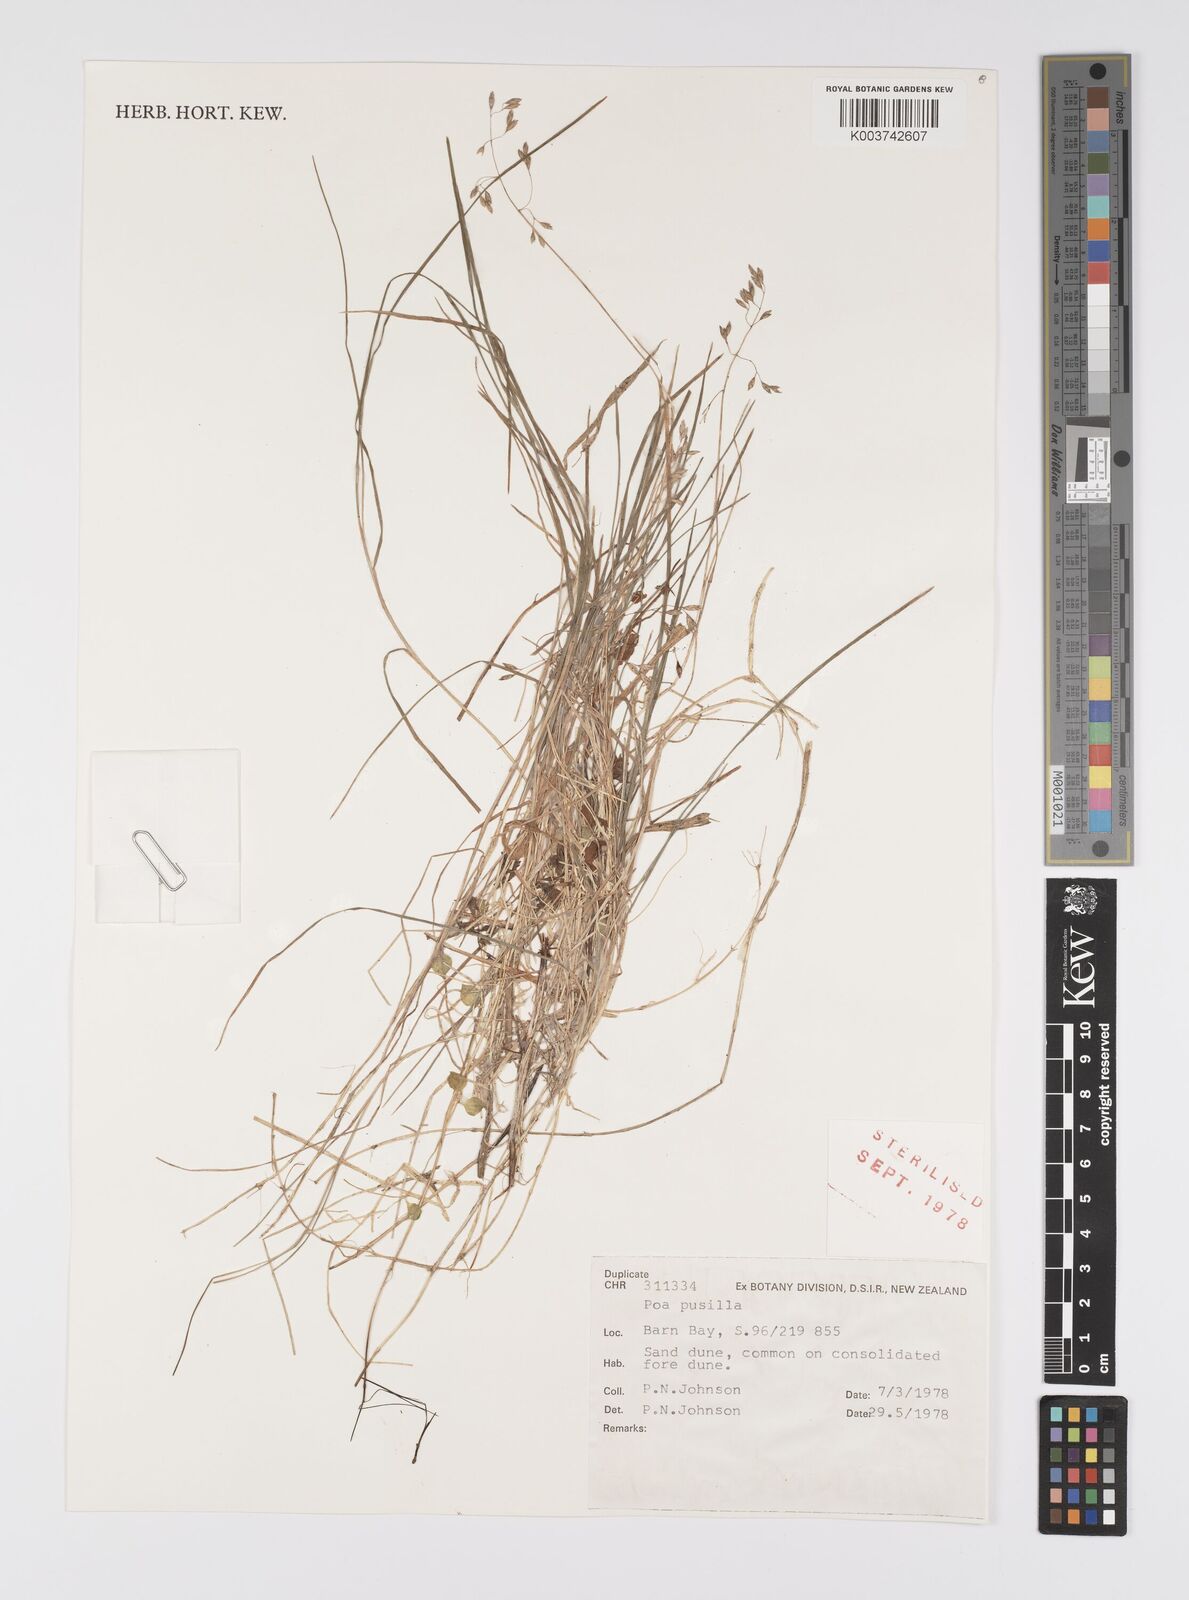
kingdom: Plantae
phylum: Tracheophyta
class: Liliopsida
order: Poales
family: Poaceae
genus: Poa
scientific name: Poa anceps
